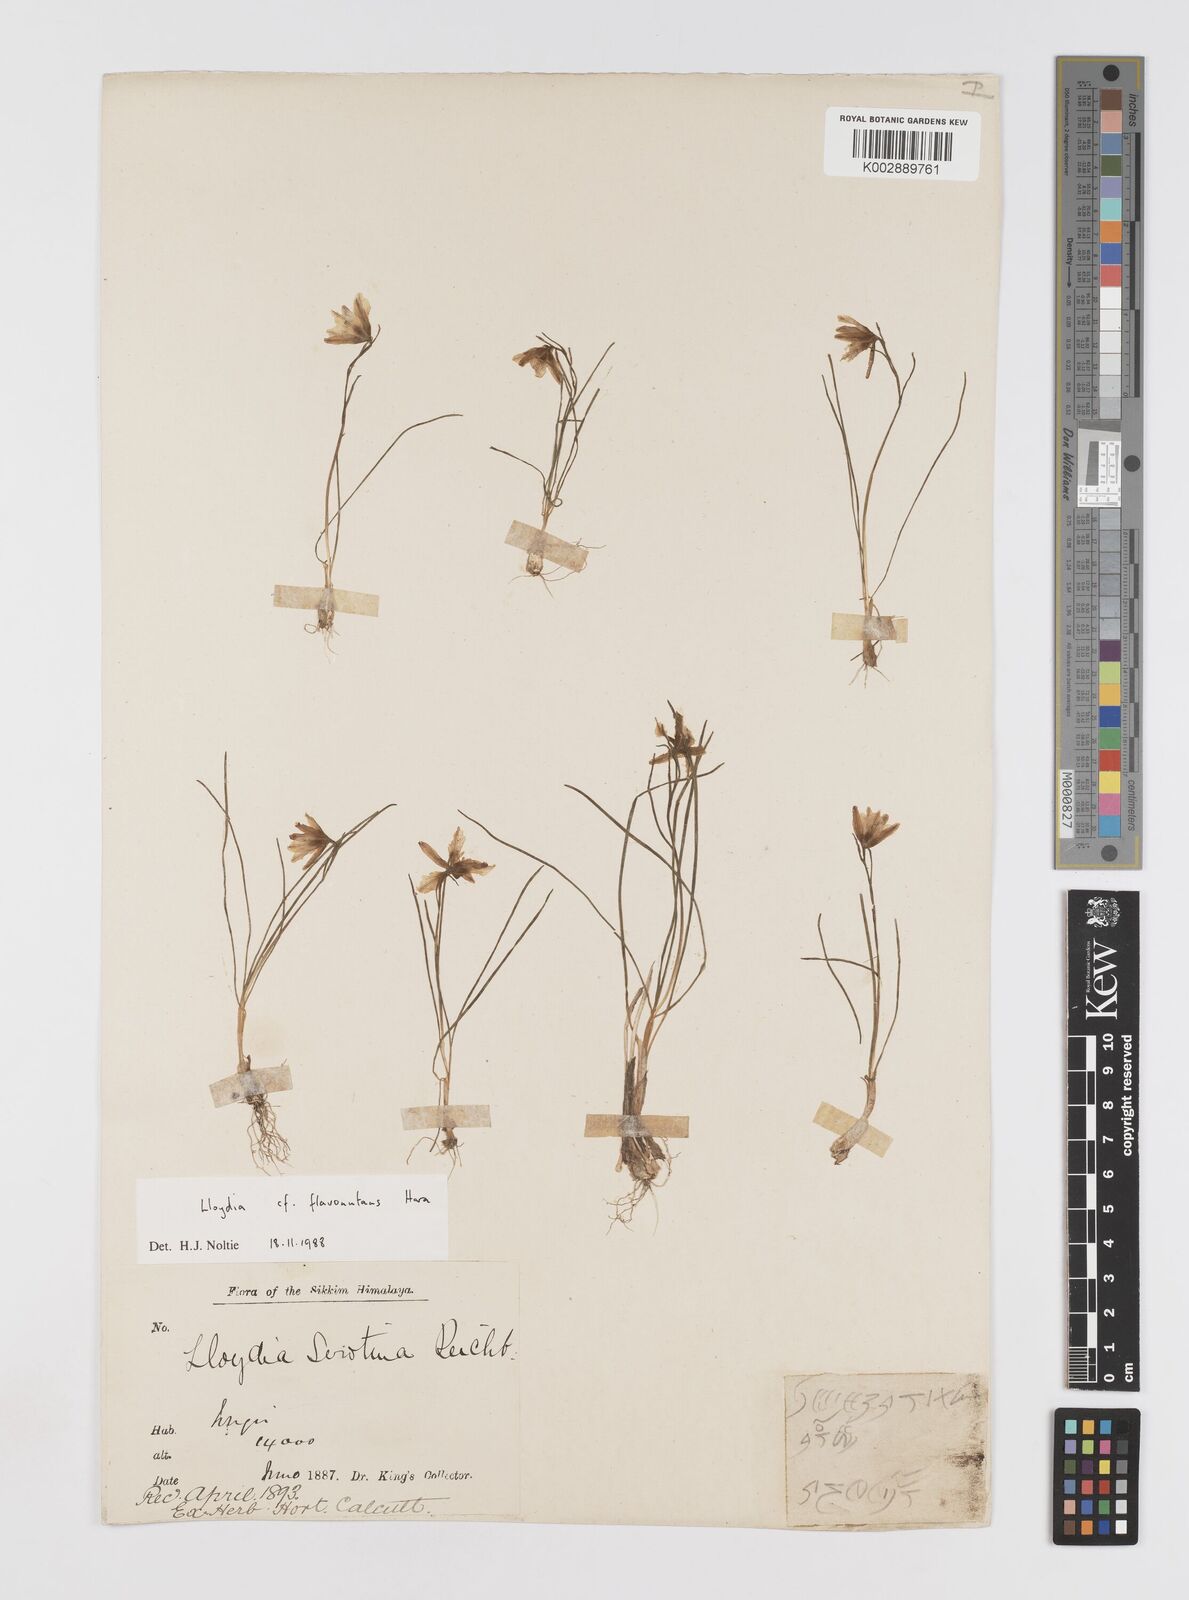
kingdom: Plantae
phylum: Tracheophyta
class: Liliopsida
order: Liliales
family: Liliaceae
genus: Gagea
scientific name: Gagea flavonutans
